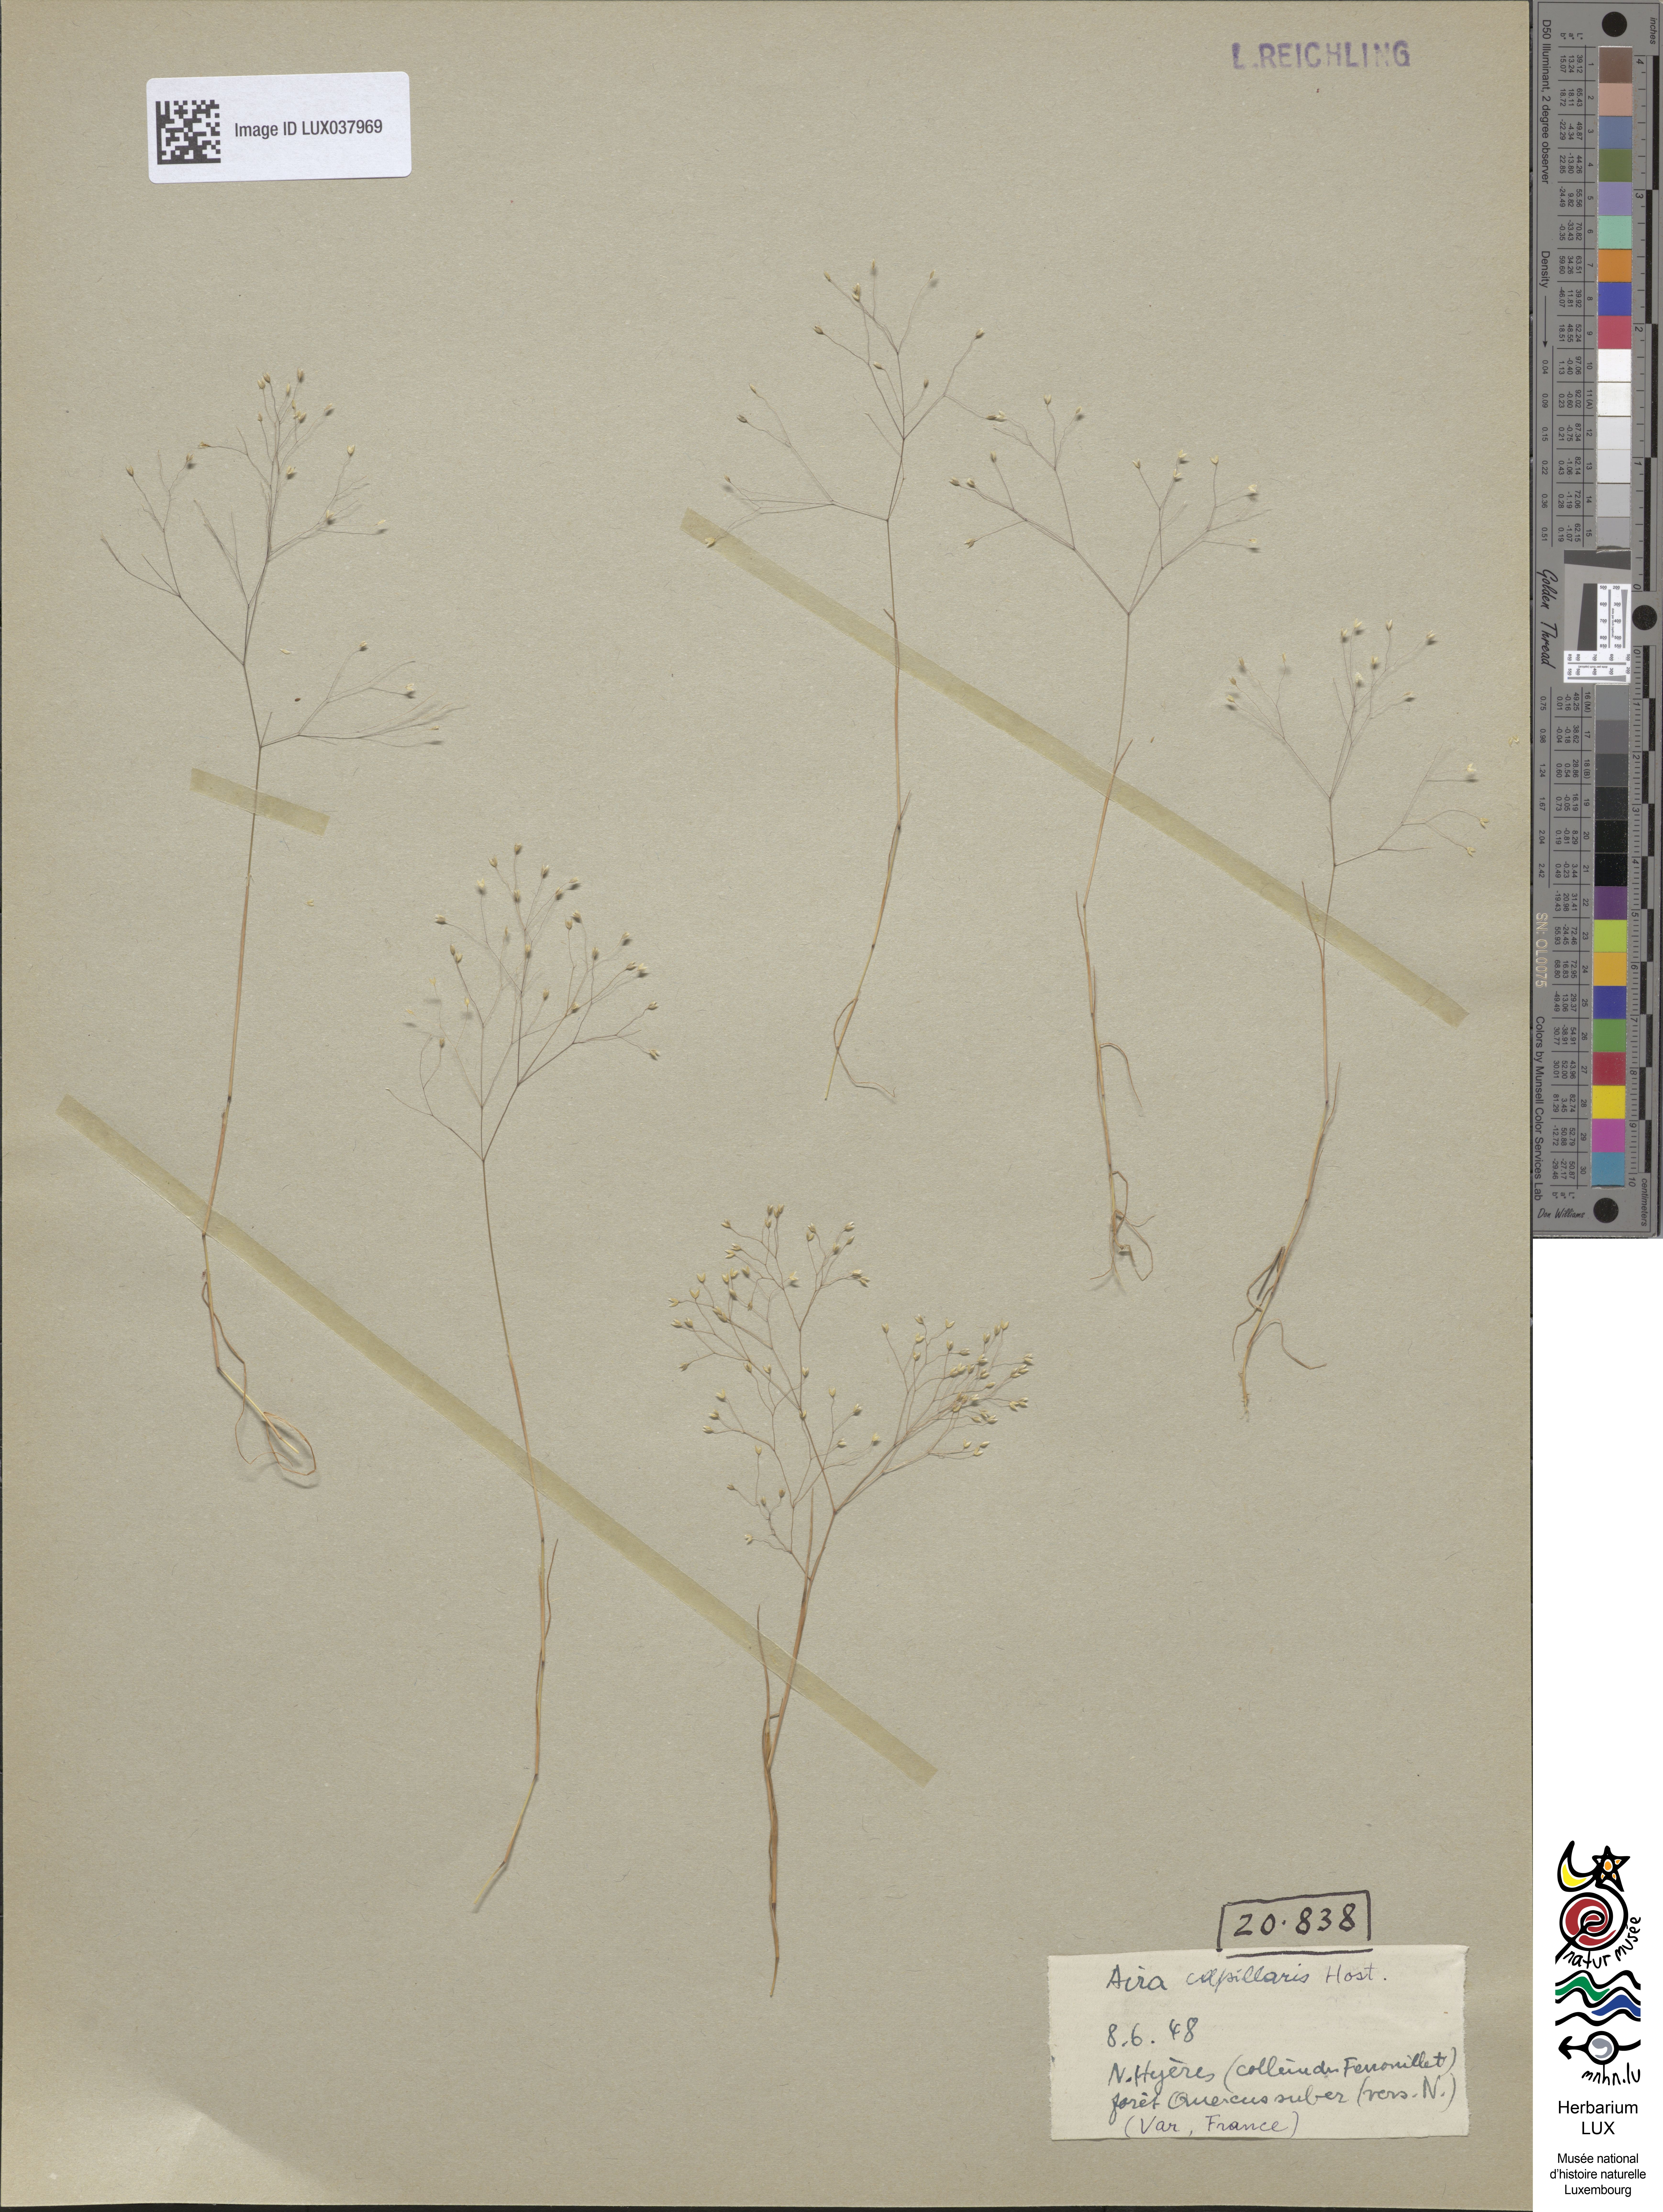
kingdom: Plantae
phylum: Tracheophyta
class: Liliopsida
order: Poales
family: Poaceae
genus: Aira
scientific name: Aira elegans
